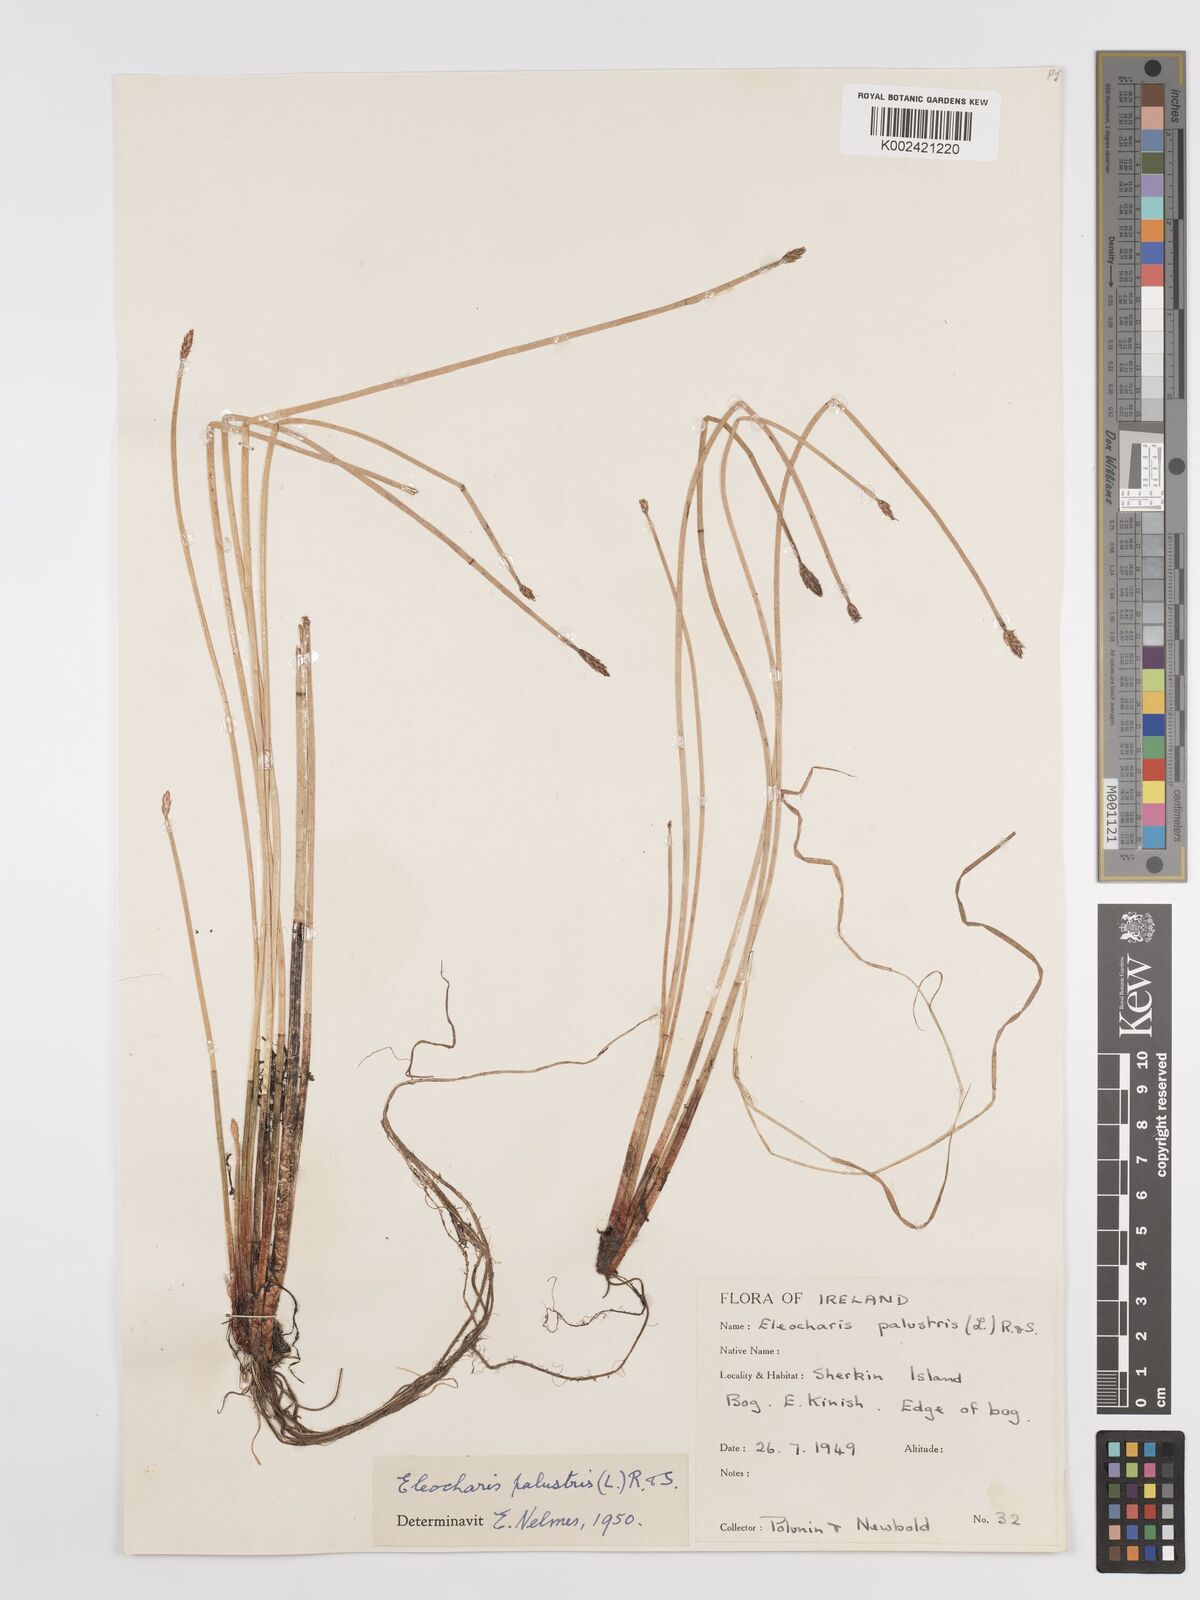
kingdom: Plantae
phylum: Tracheophyta
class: Liliopsida
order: Poales
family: Cyperaceae
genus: Eleocharis
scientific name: Eleocharis palustris
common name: Common spike-rush
